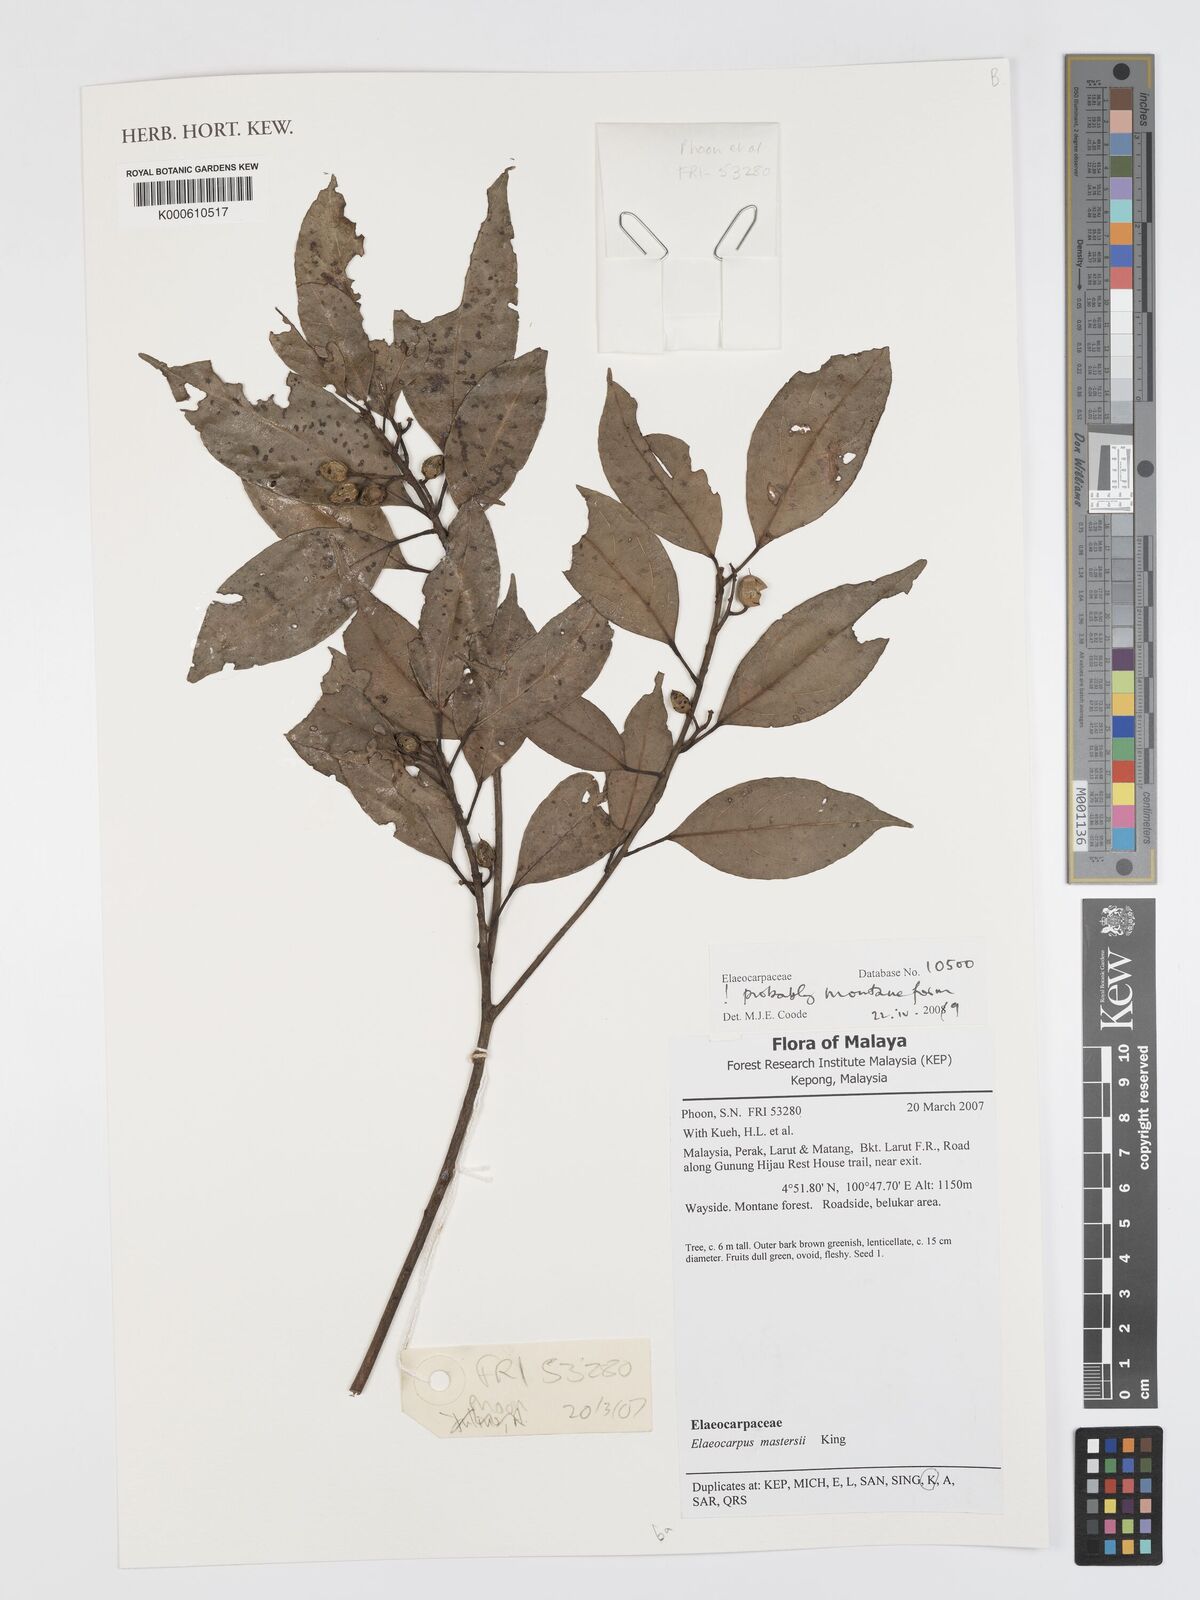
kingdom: Plantae
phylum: Tracheophyta
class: Magnoliopsida
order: Oxalidales
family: Elaeocarpaceae
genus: Elaeocarpus
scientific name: Elaeocarpus mastersii
